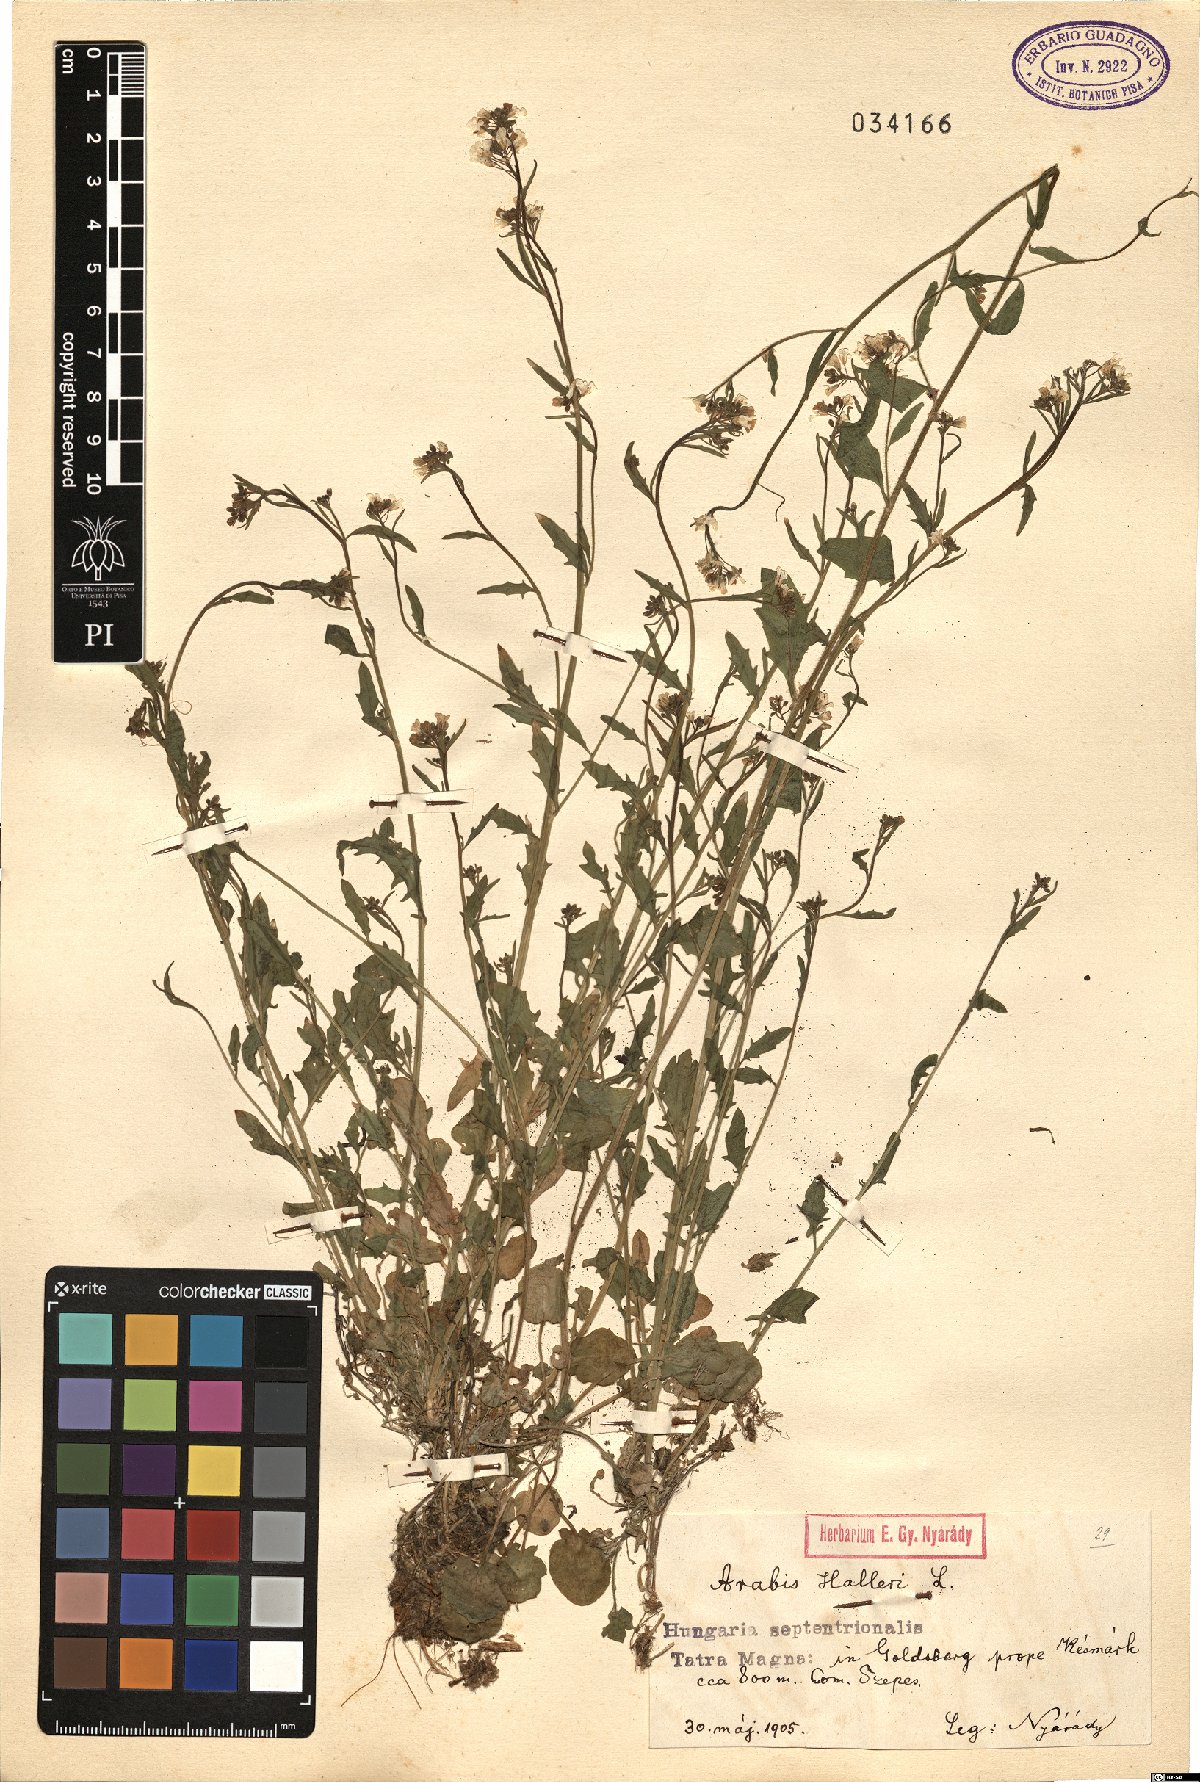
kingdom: Plantae
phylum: Tracheophyta
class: Magnoliopsida
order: Brassicales
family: Brassicaceae
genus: Arabidopsis
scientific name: Arabidopsis halleri
